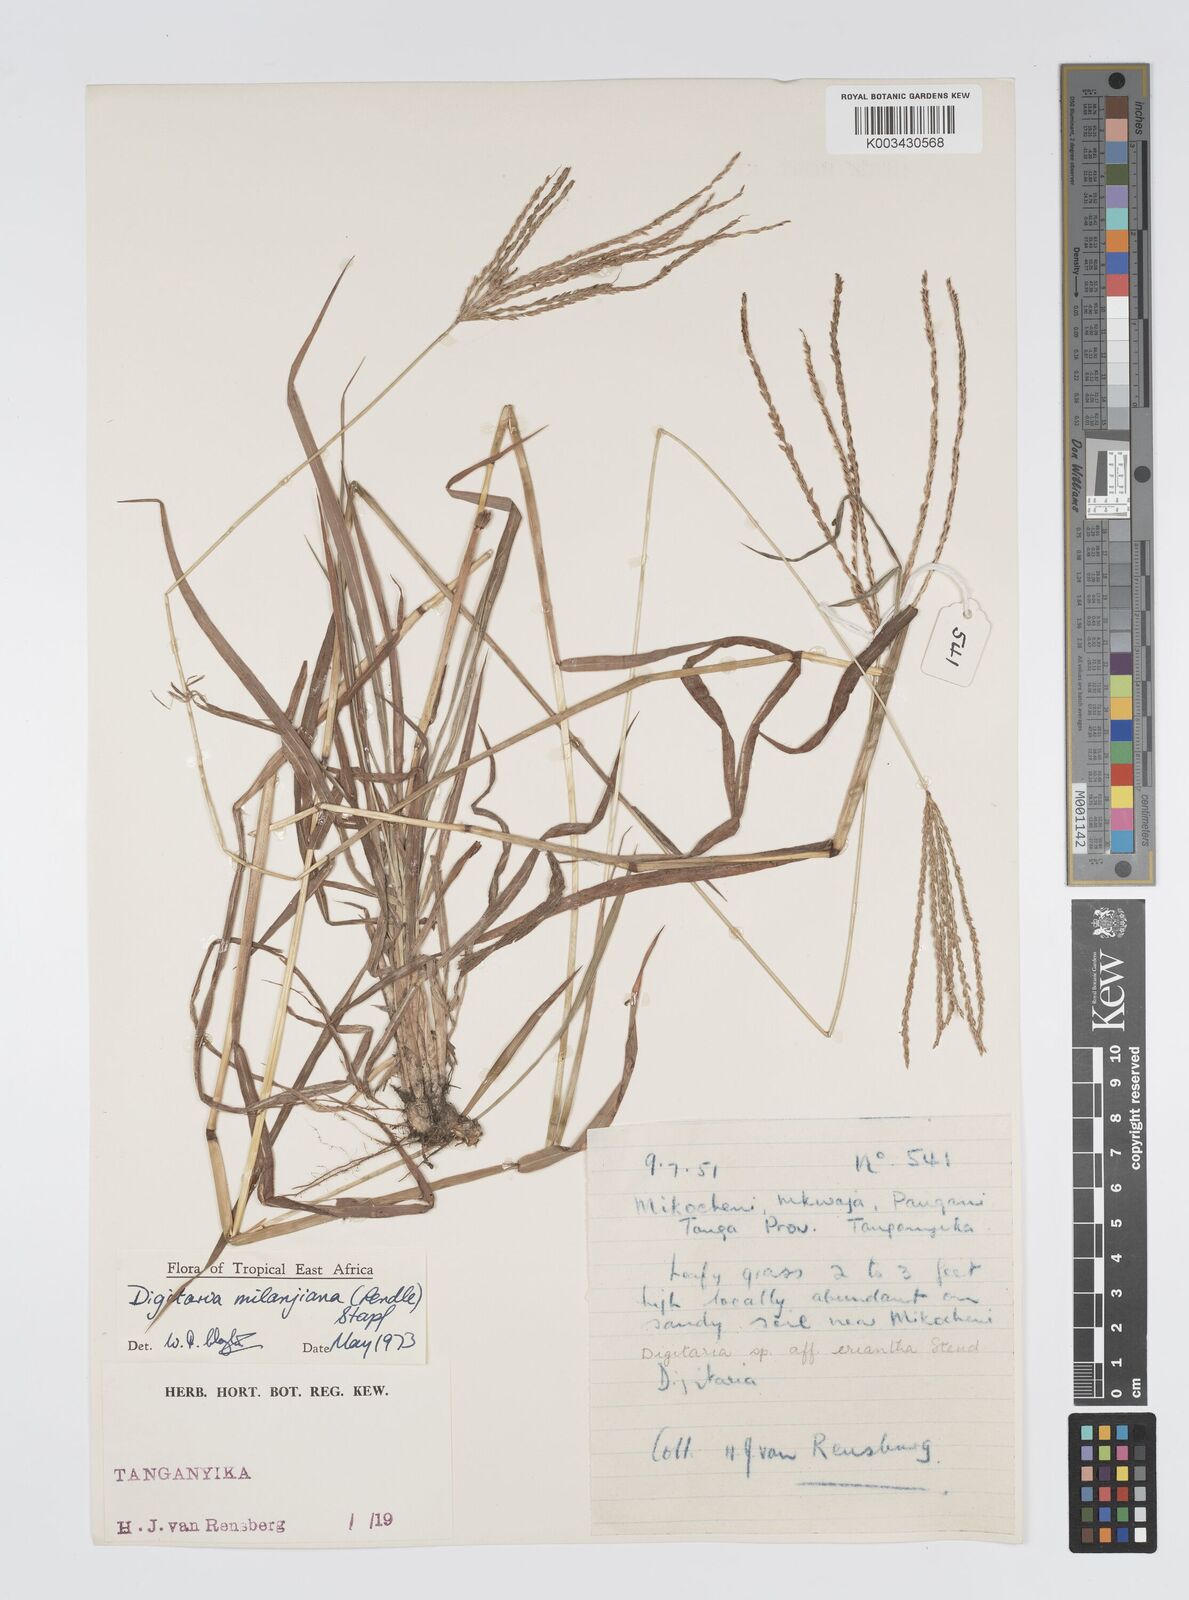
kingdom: Plantae
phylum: Tracheophyta
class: Liliopsida
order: Poales
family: Poaceae
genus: Digitaria
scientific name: Digitaria milanjiana
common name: Madagascar crabgrass
